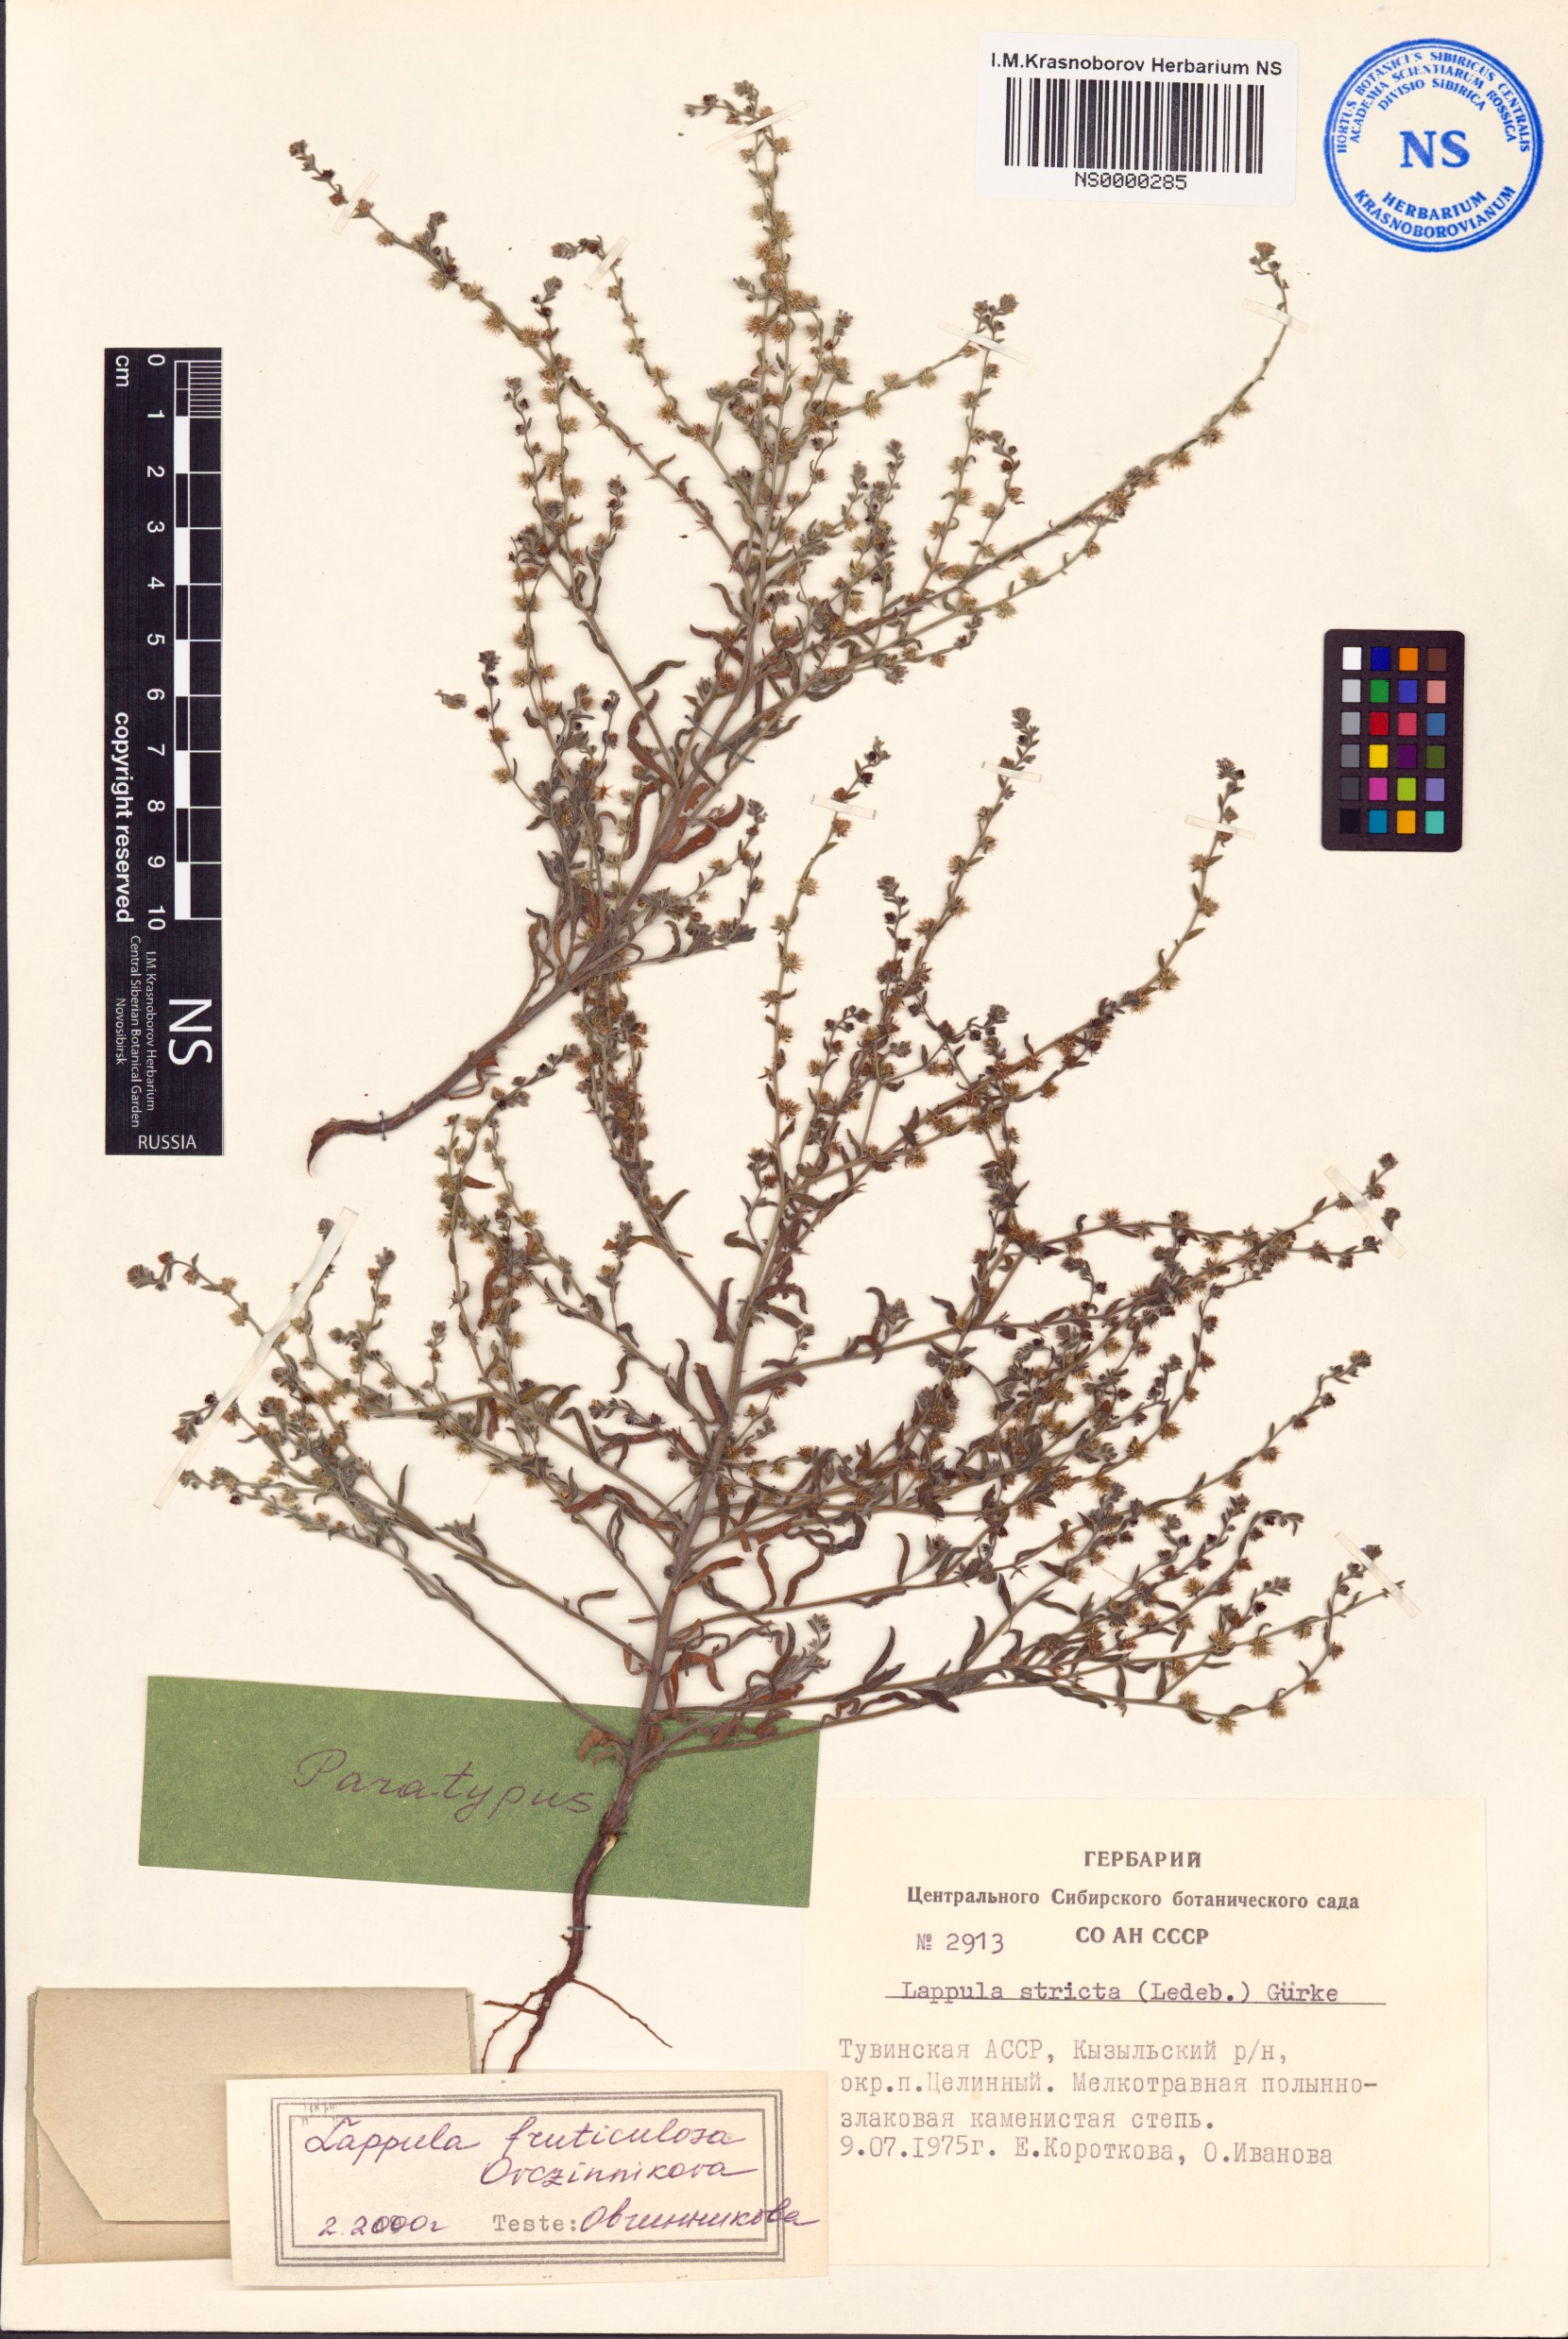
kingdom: Plantae
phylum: Tracheophyta
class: Magnoliopsida
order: Boraginales
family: Boraginaceae
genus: Lappula
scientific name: Lappula fruticulosa
